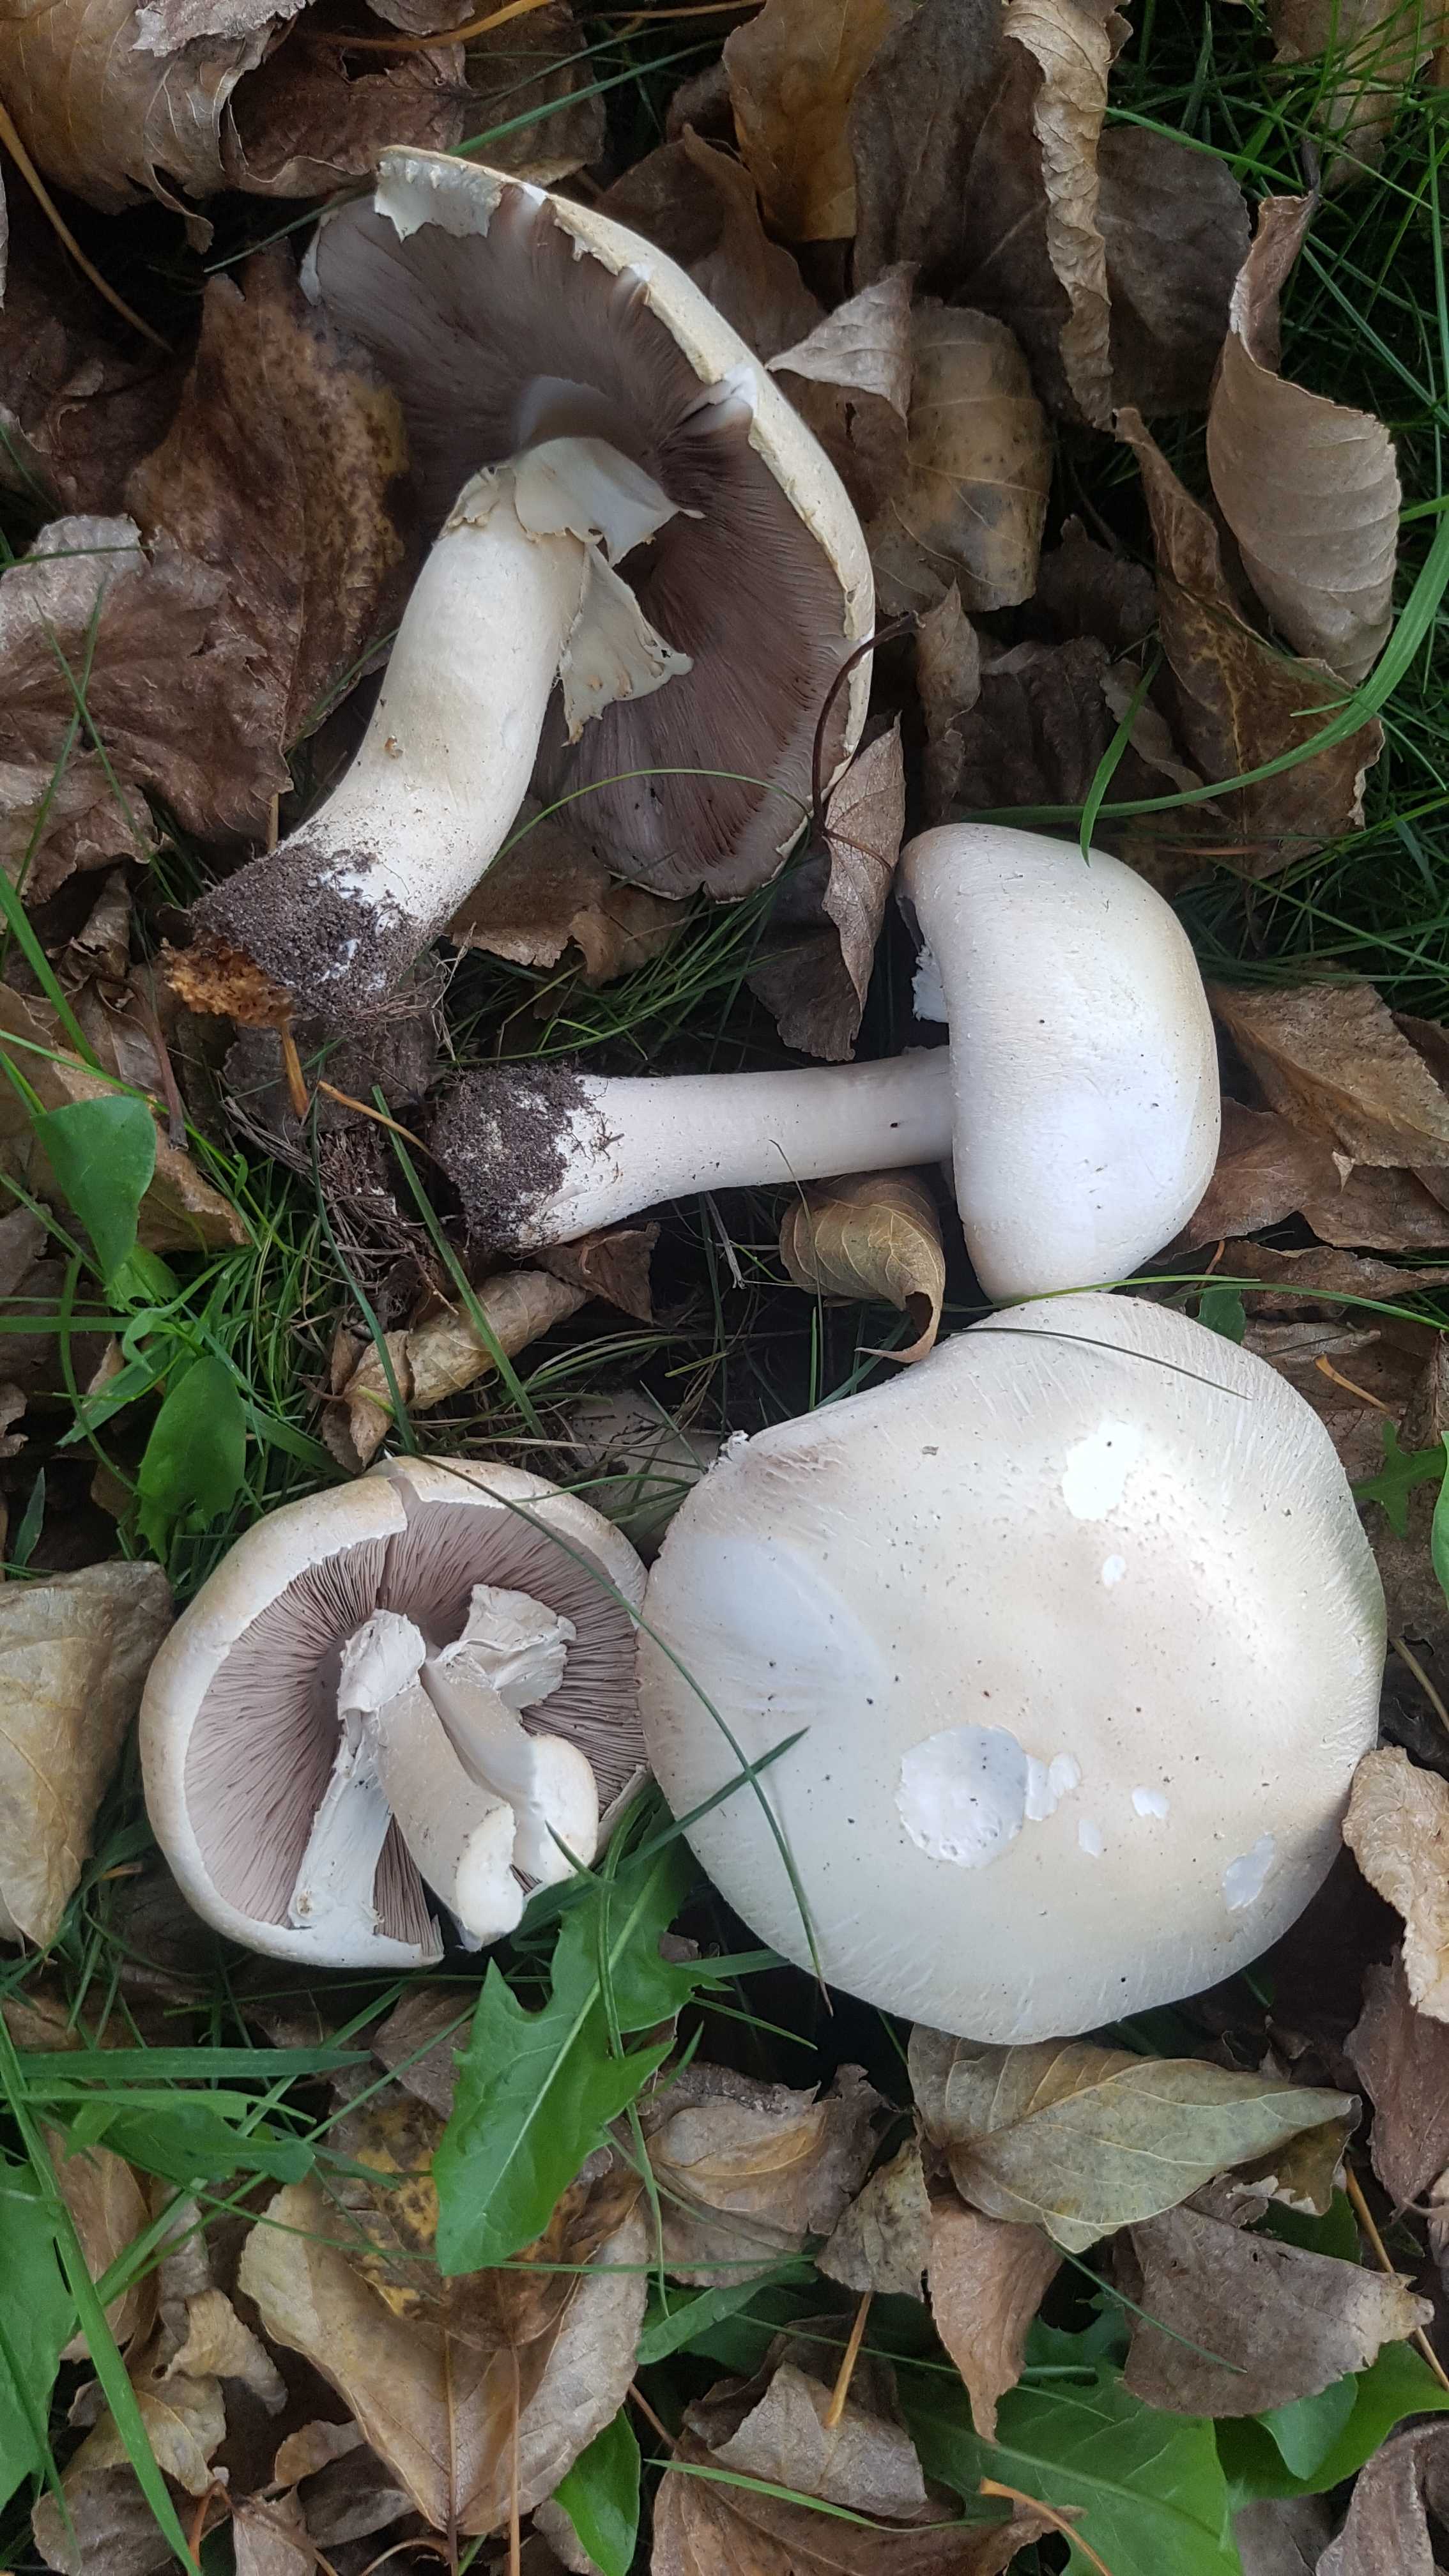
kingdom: Fungi
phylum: Basidiomycota
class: Agaricomycetes
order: Agaricales
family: Agaricaceae
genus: Agaricus
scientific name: Agaricus arvensis
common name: ager-champignon
